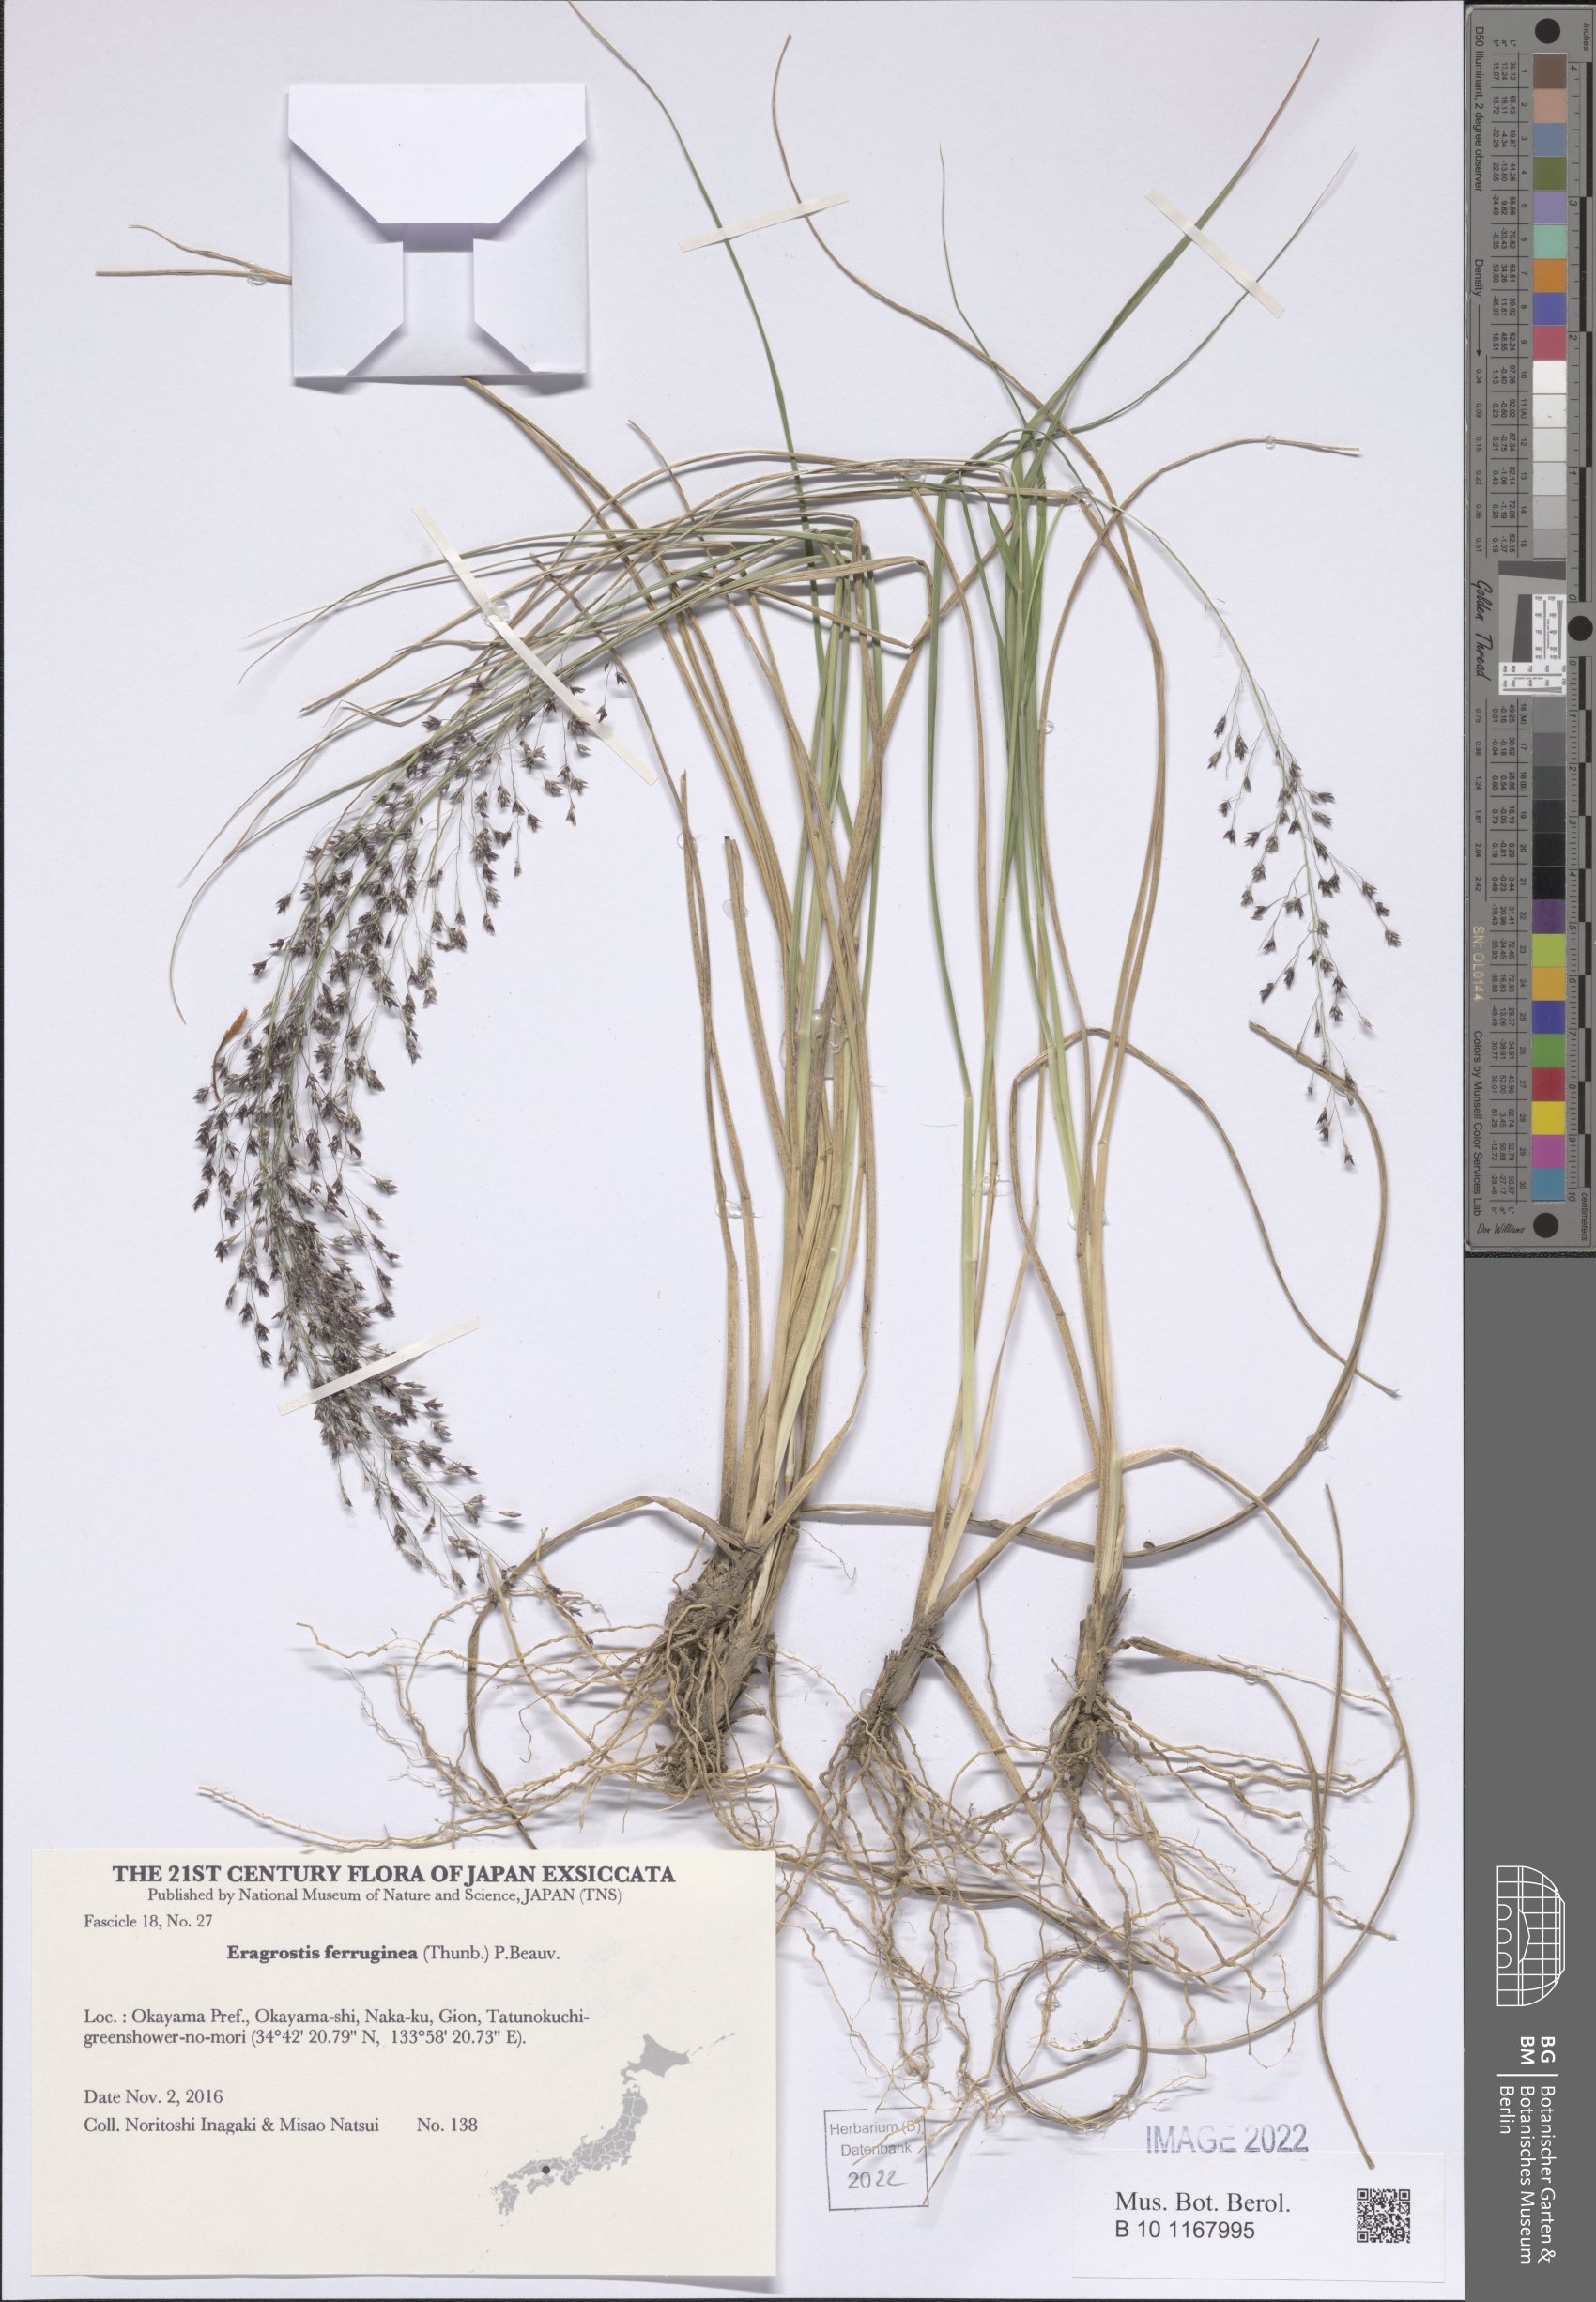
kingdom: Plantae
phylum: Tracheophyta
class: Liliopsida
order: Poales
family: Poaceae
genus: Eragrostis
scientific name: Eragrostis ferruginea
